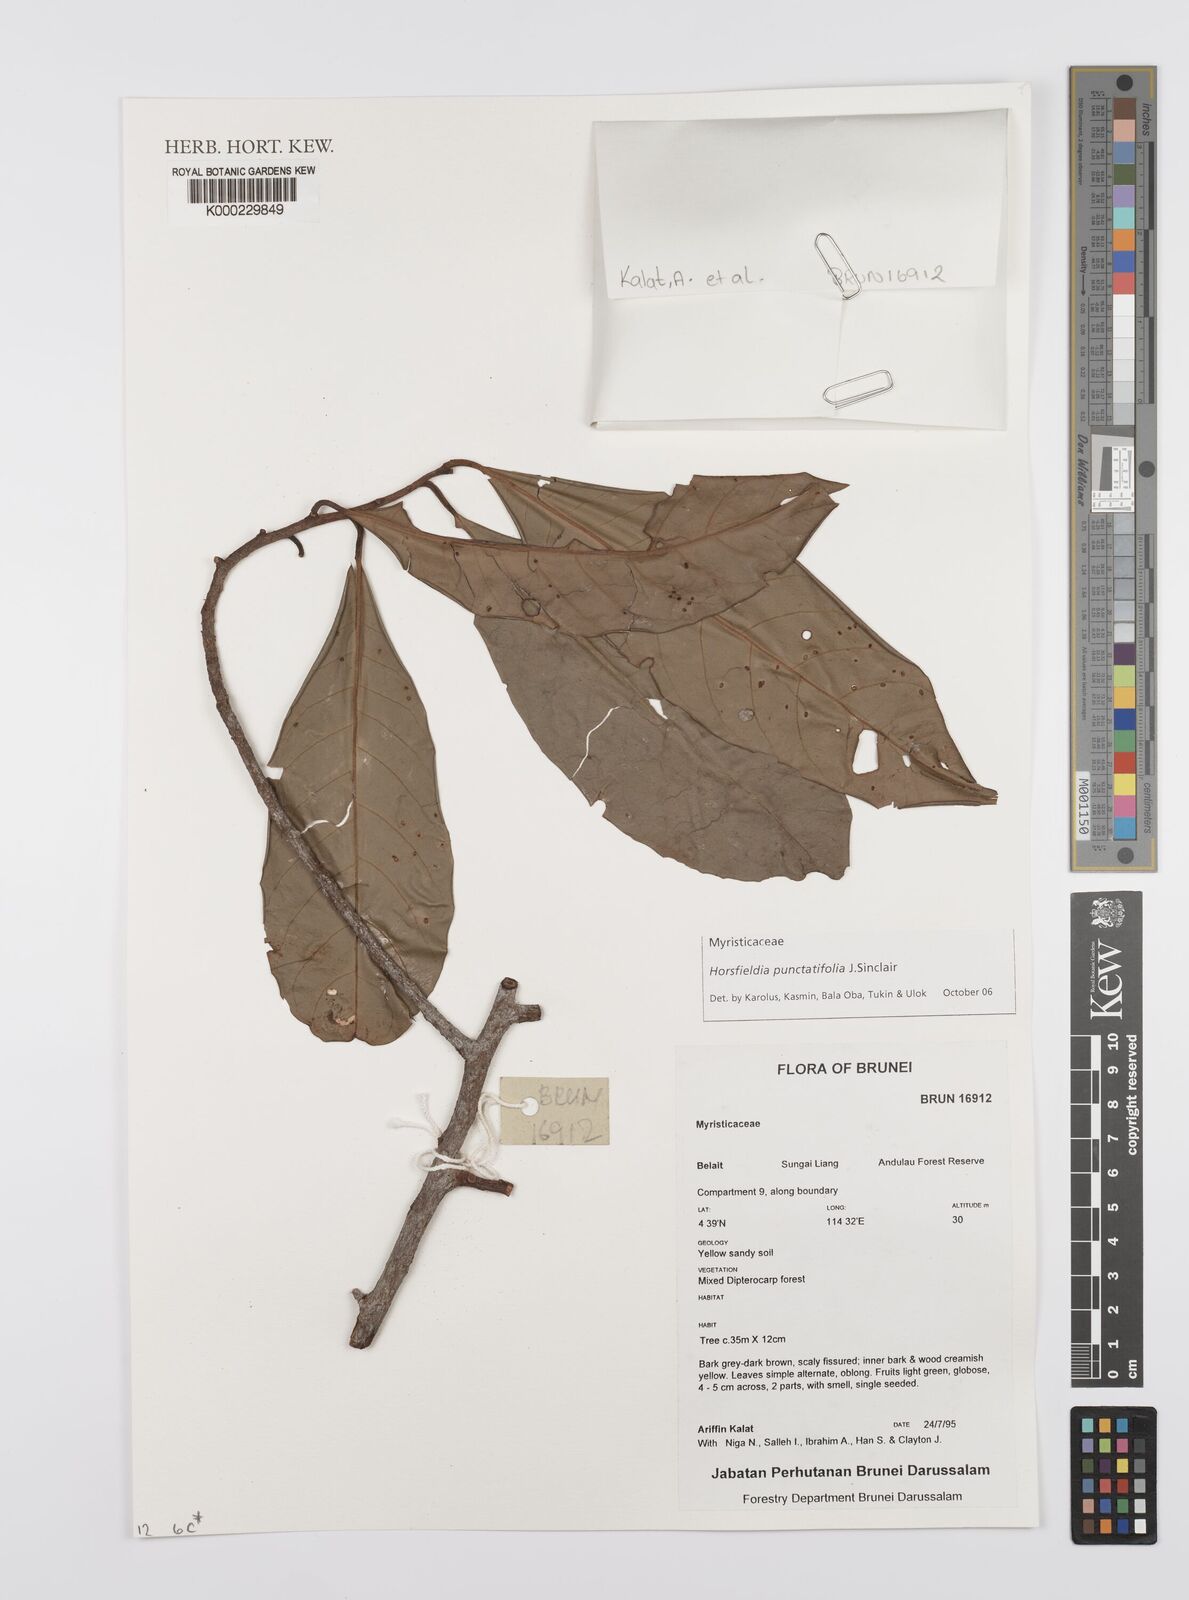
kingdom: Plantae
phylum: Tracheophyta
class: Magnoliopsida
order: Magnoliales
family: Myristicaceae
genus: Horsfieldia
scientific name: Horsfieldia punctatifolia
